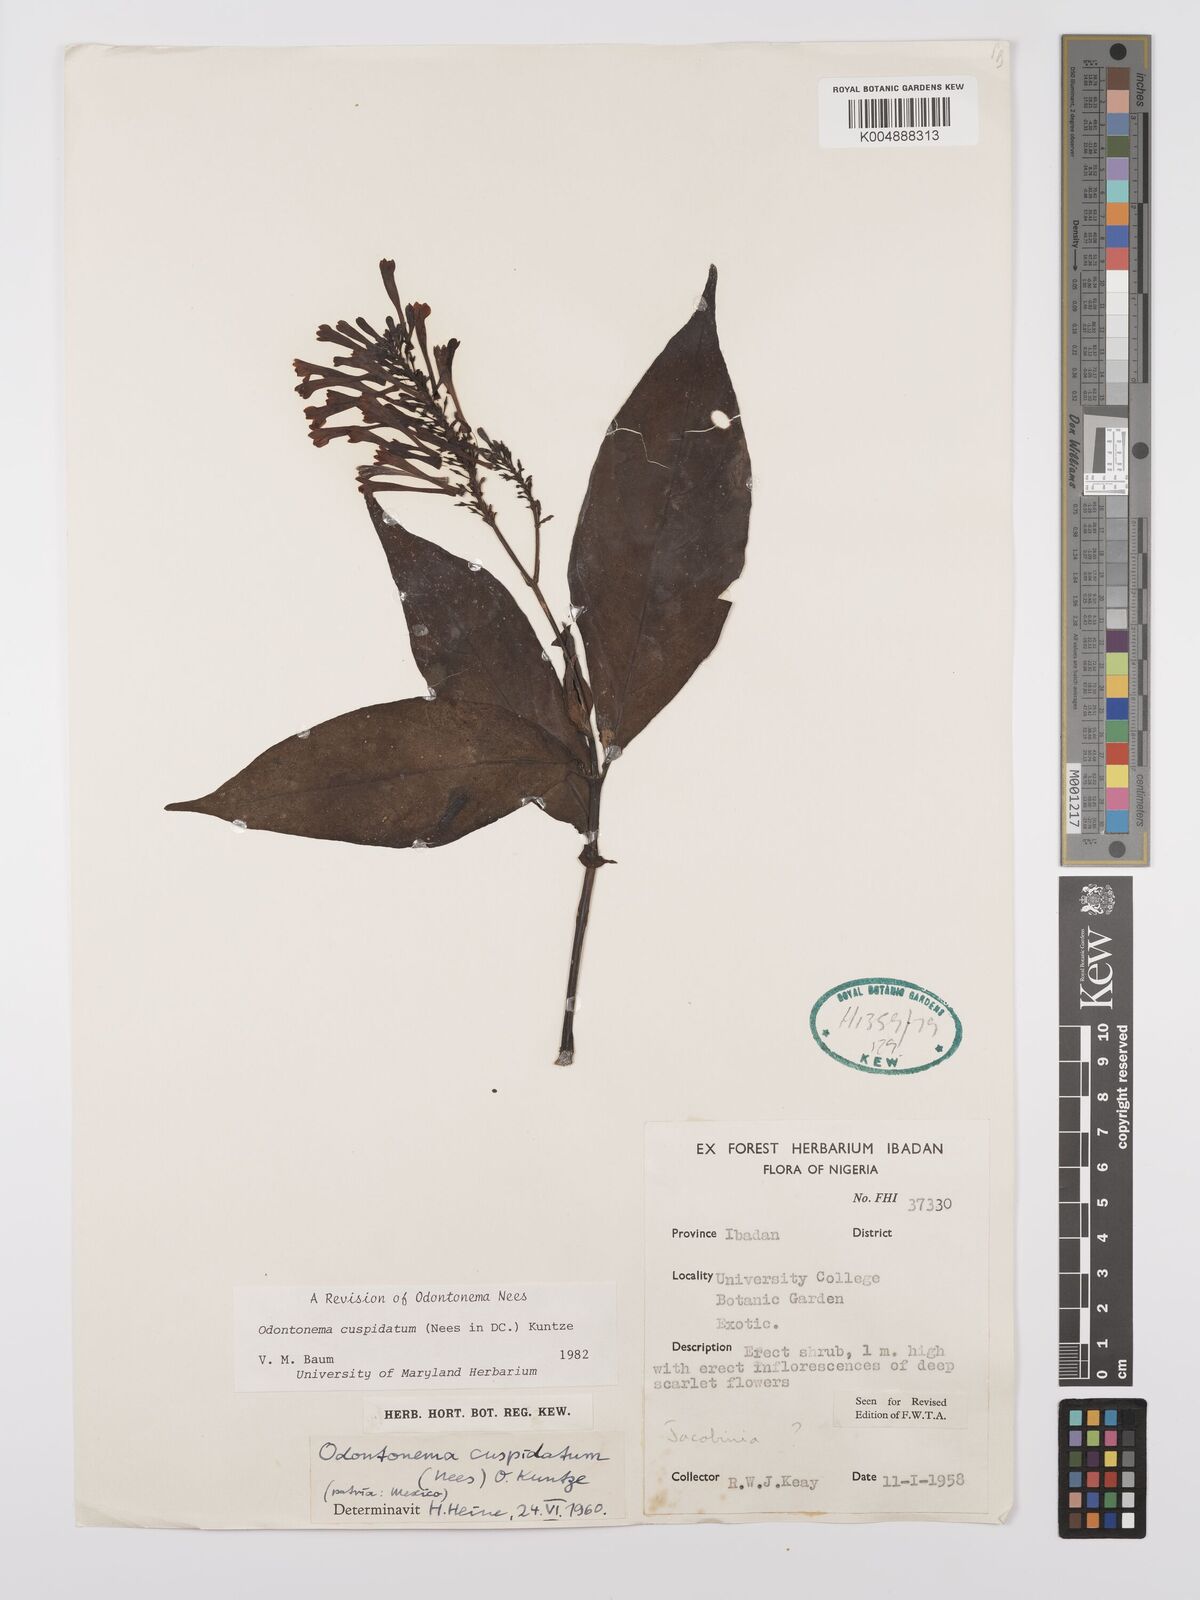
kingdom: Plantae
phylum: Tracheophyta
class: Magnoliopsida
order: Lamiales
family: Acanthaceae
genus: Odontonema
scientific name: Odontonema cuspidatum
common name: Mottled toothedthread
